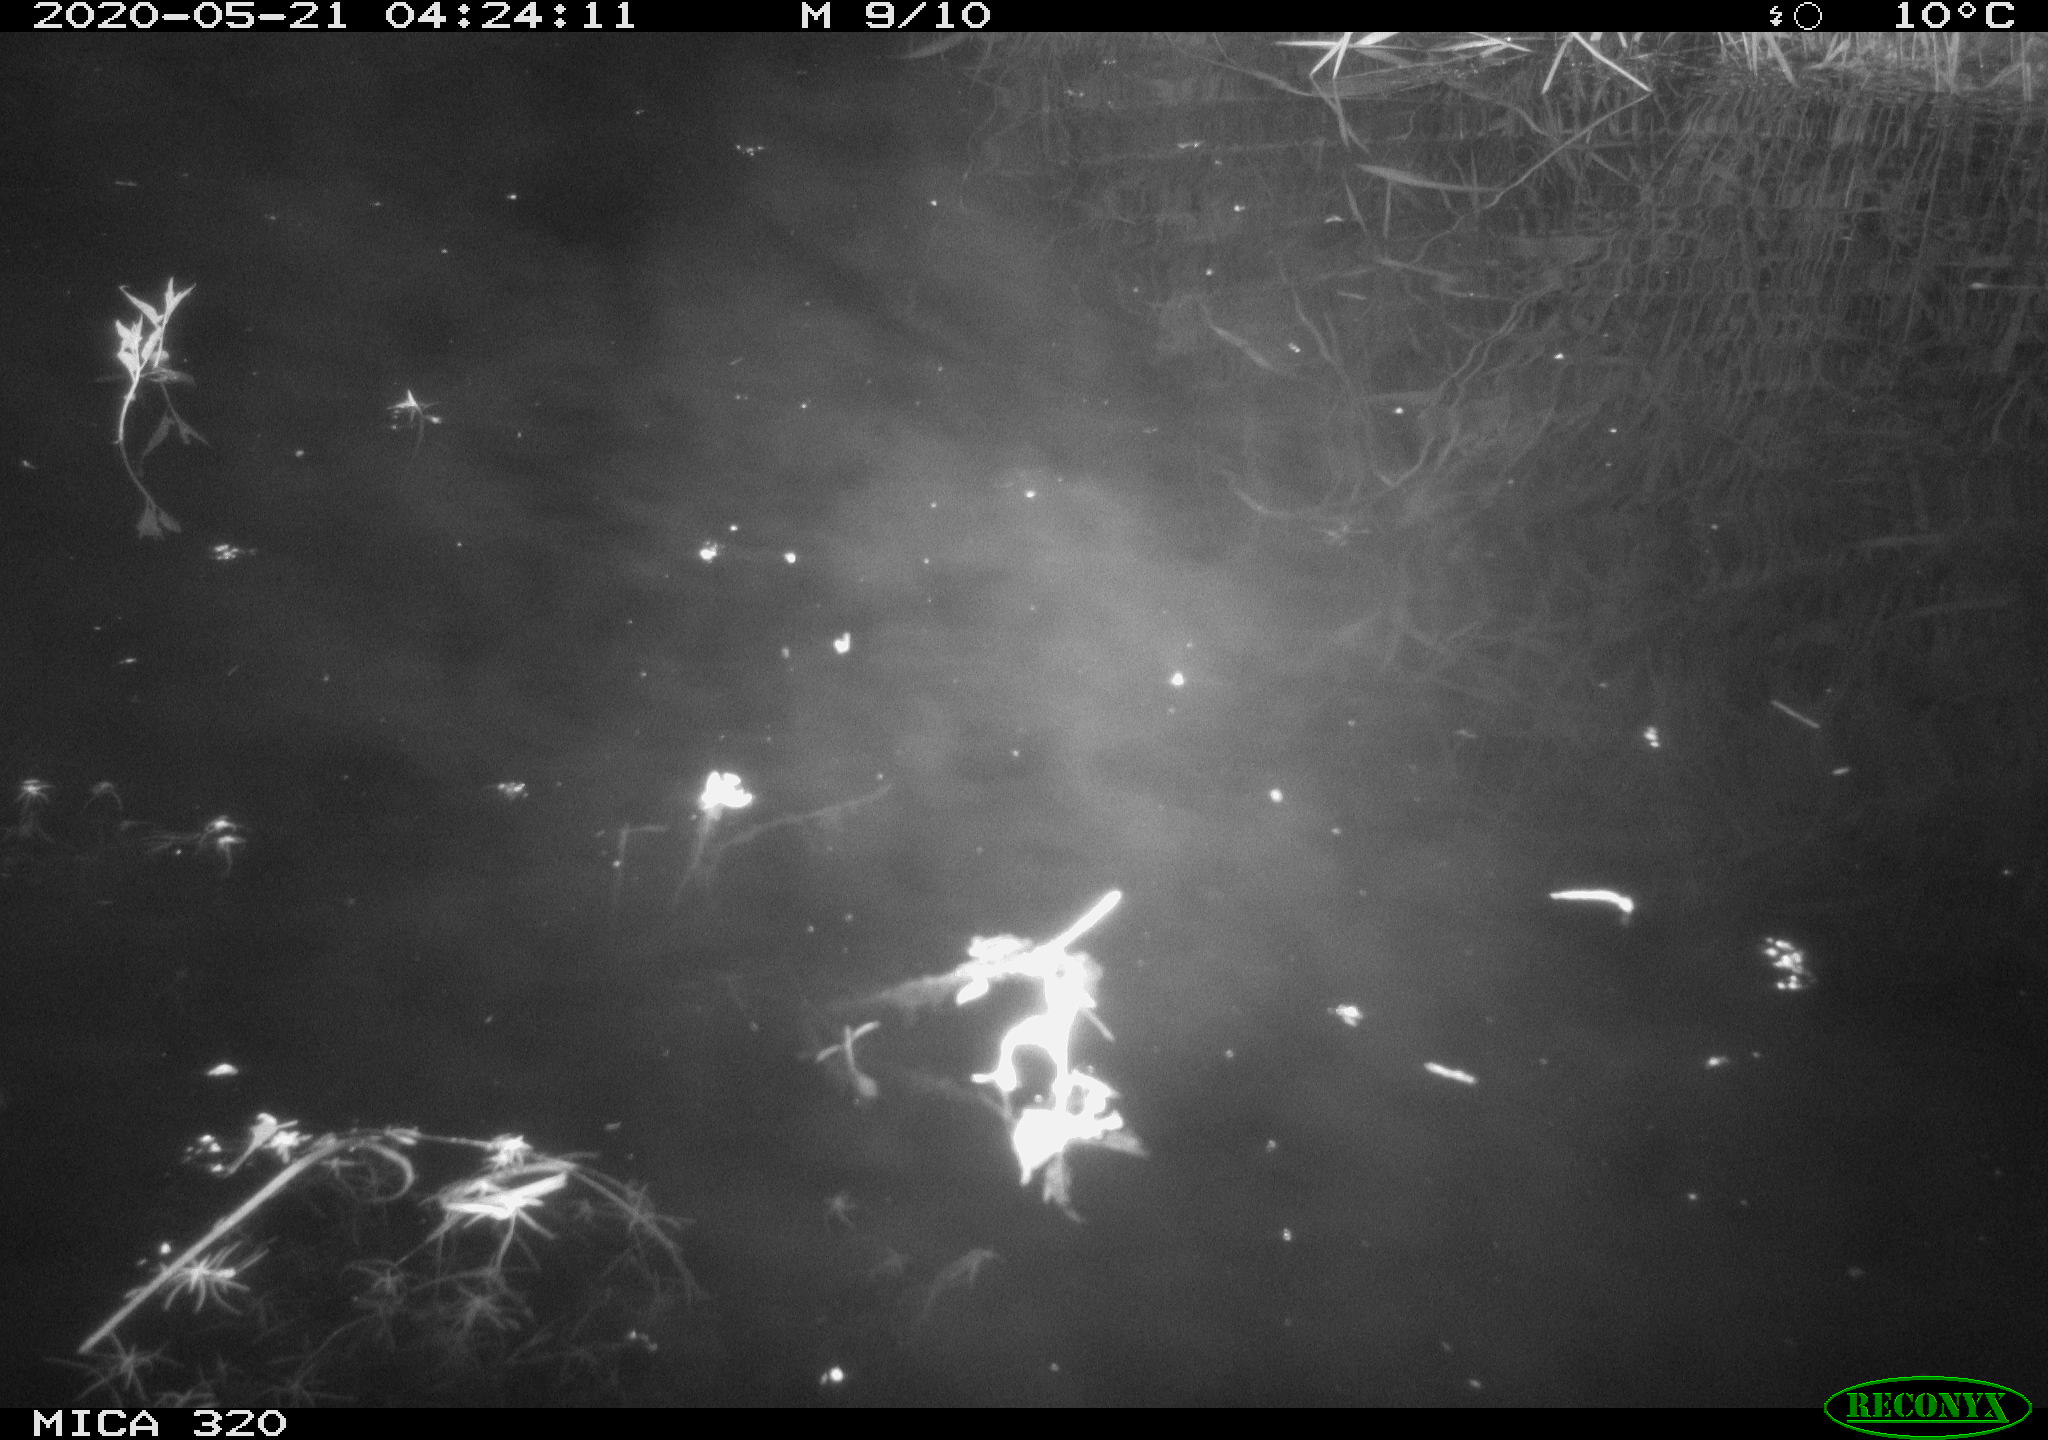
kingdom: Animalia
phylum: Chordata
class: Aves
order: Anseriformes
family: Anatidae
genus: Anas
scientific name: Anas platyrhynchos
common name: Mallard
